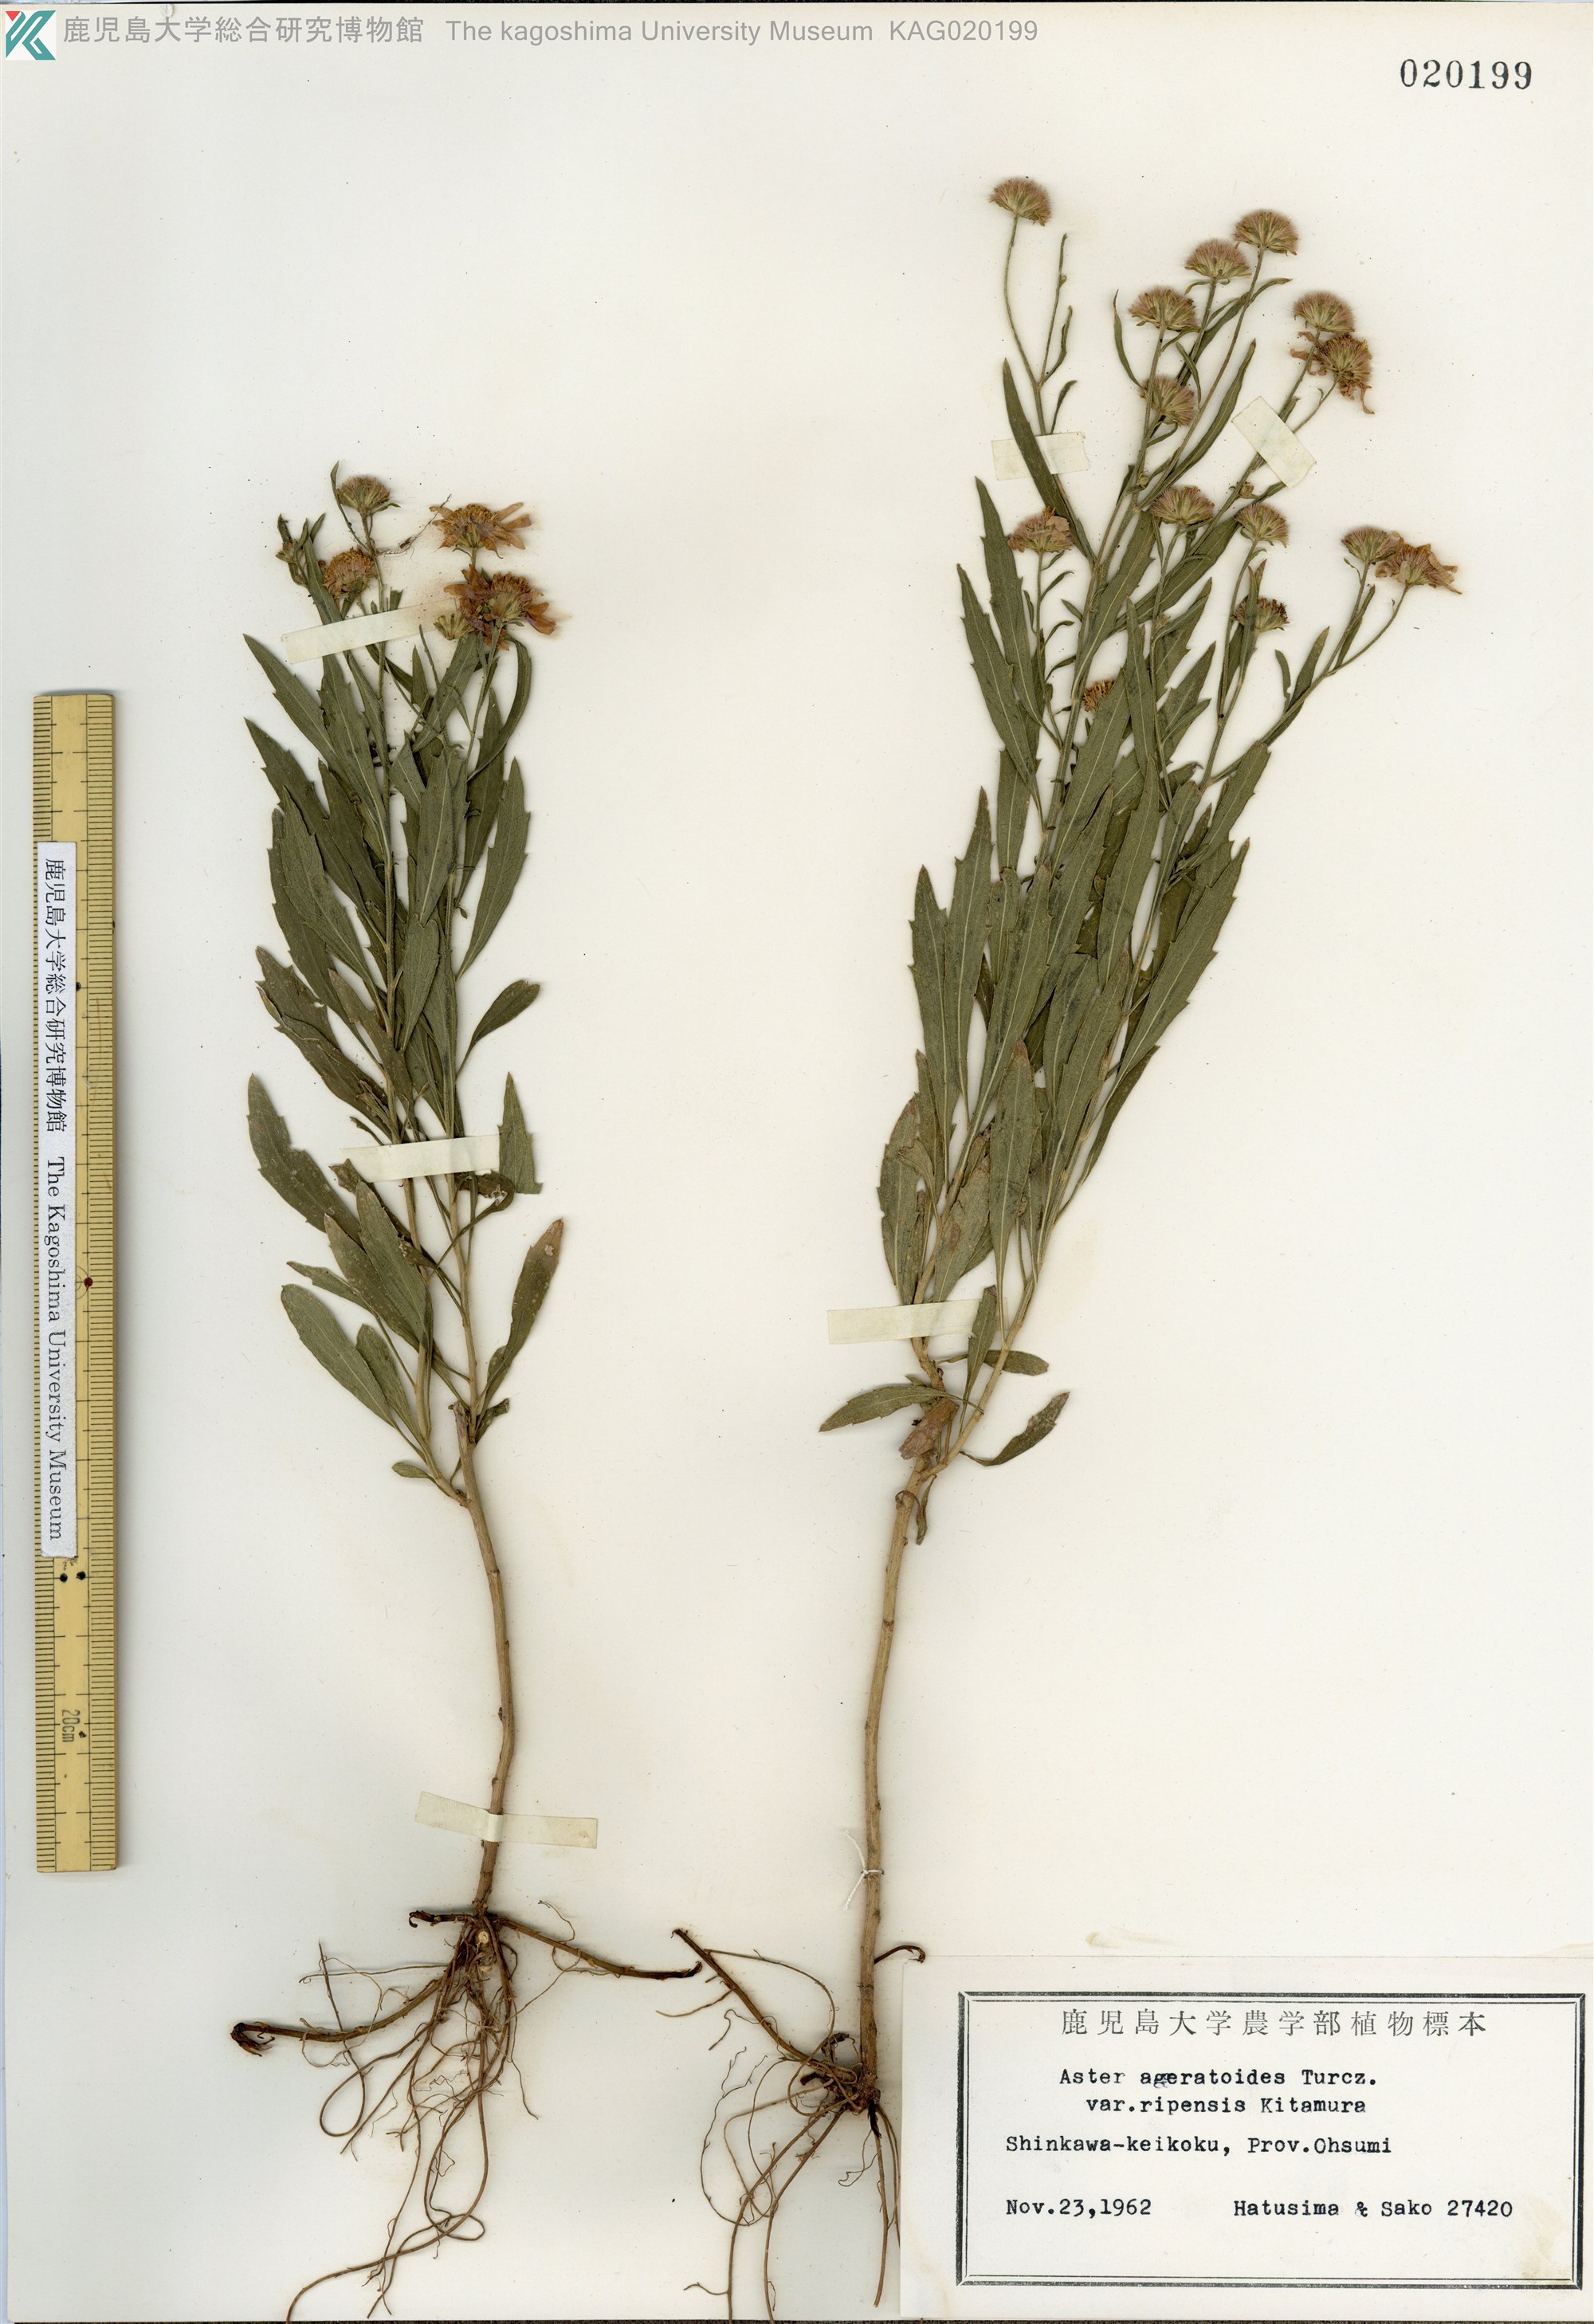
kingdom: Plantae
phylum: Tracheophyta
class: Magnoliopsida
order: Asterales
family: Asteraceae
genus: Aster
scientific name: Aster microcephalus
